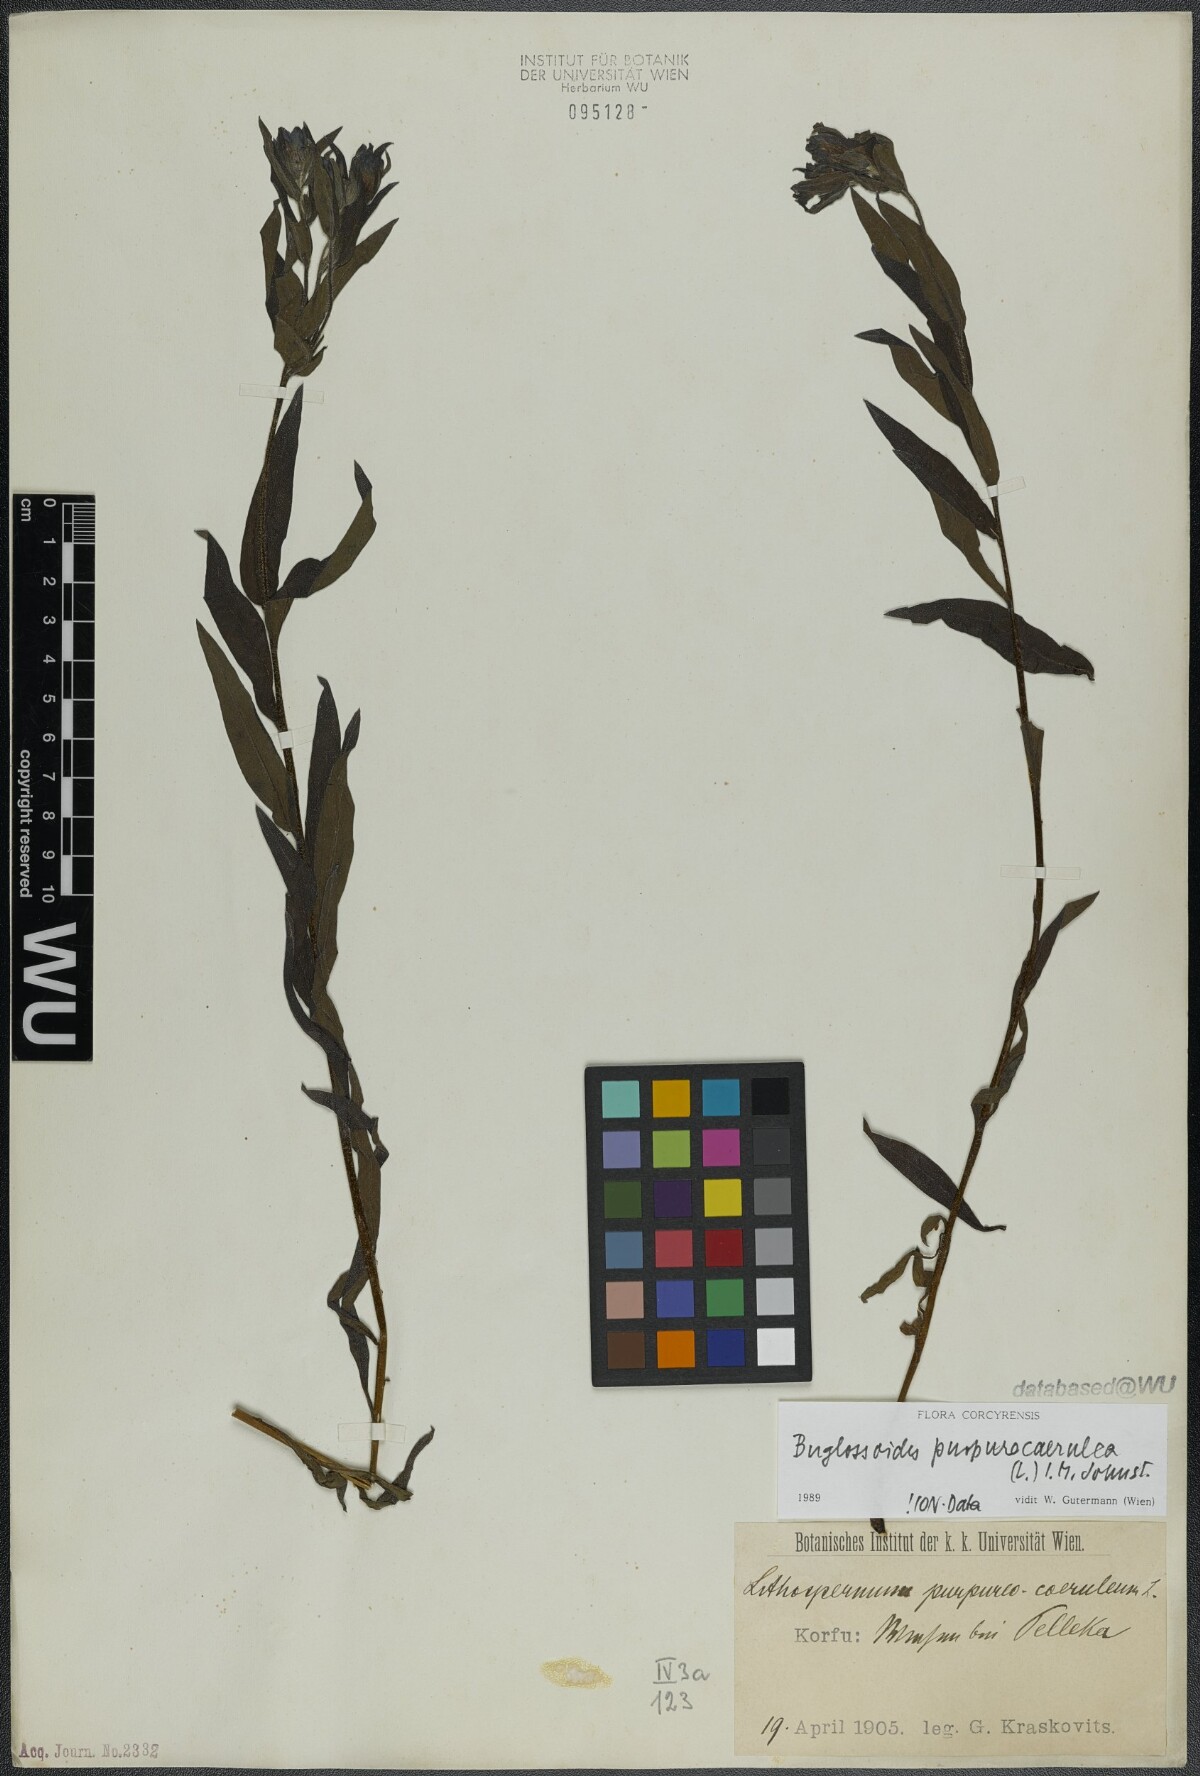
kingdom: Plantae
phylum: Tracheophyta
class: Magnoliopsida
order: Boraginales
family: Boraginaceae
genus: Aegonychon
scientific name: Aegonychon purpurocaeruleum
